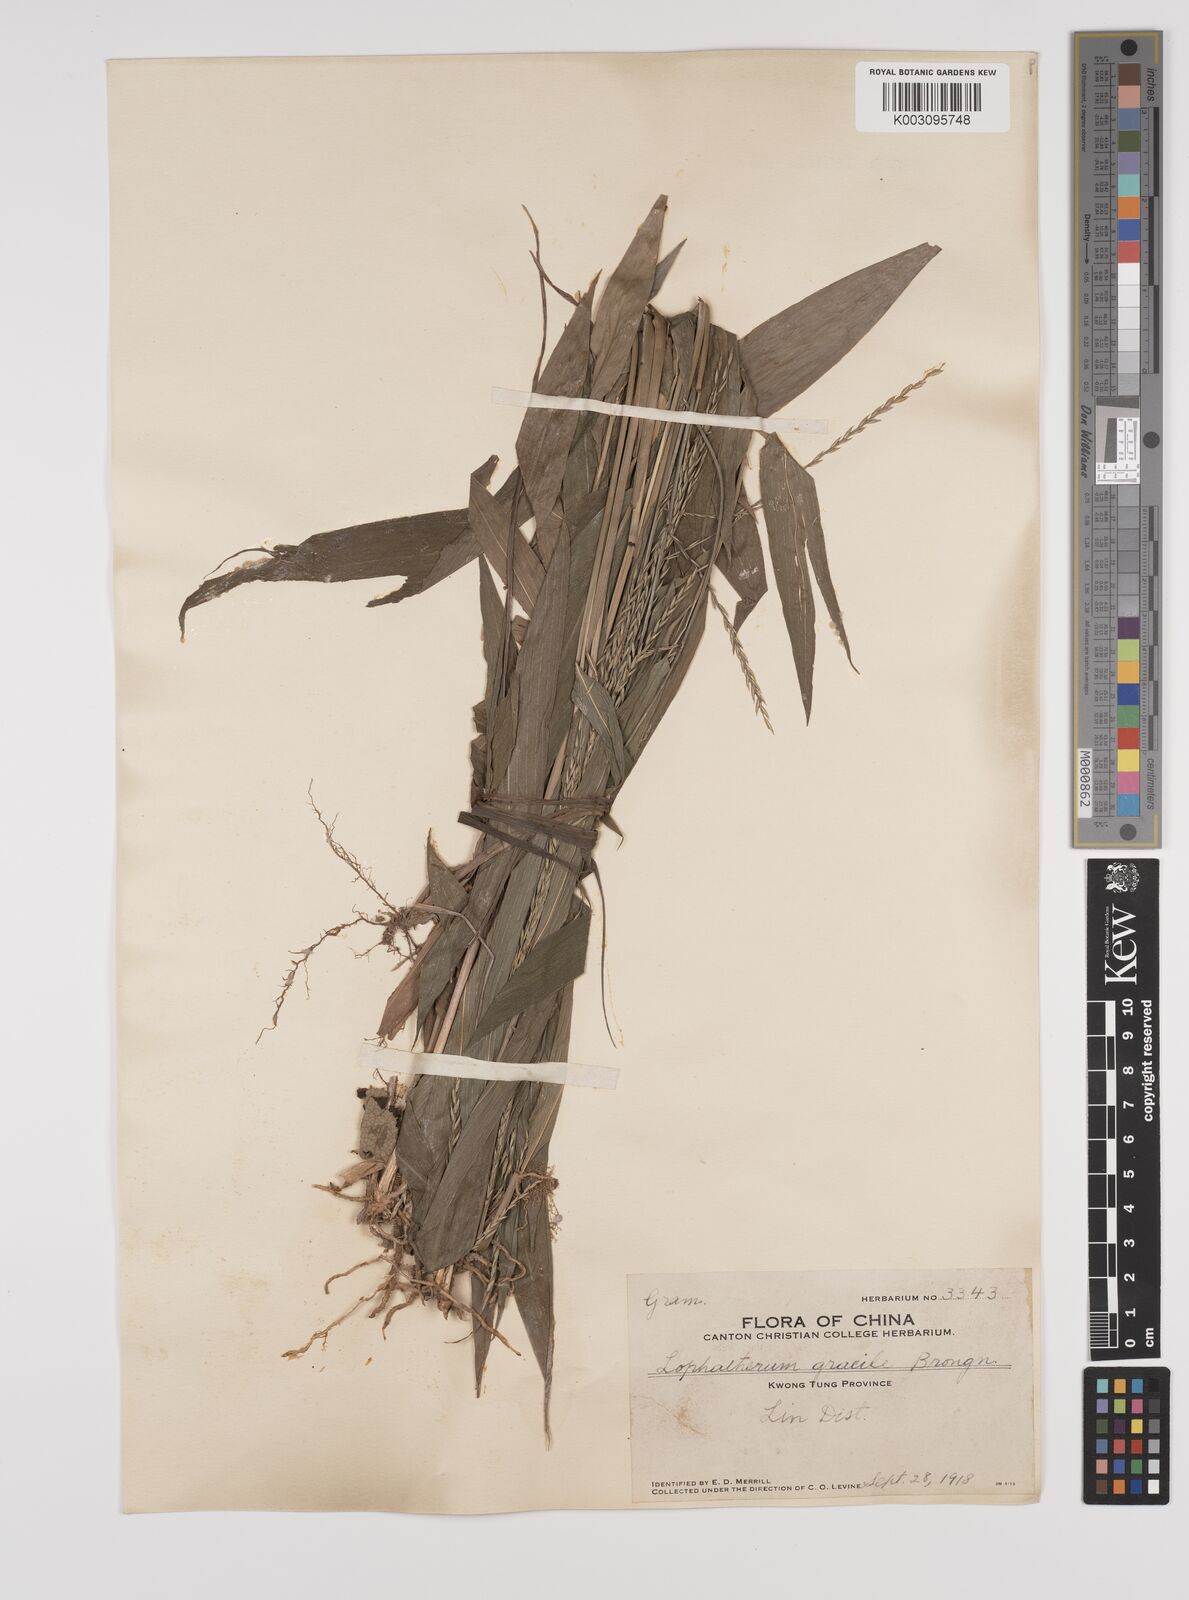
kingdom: Plantae
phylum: Tracheophyta
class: Liliopsida
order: Poales
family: Poaceae
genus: Lophatherum
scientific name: Lophatherum gracile
